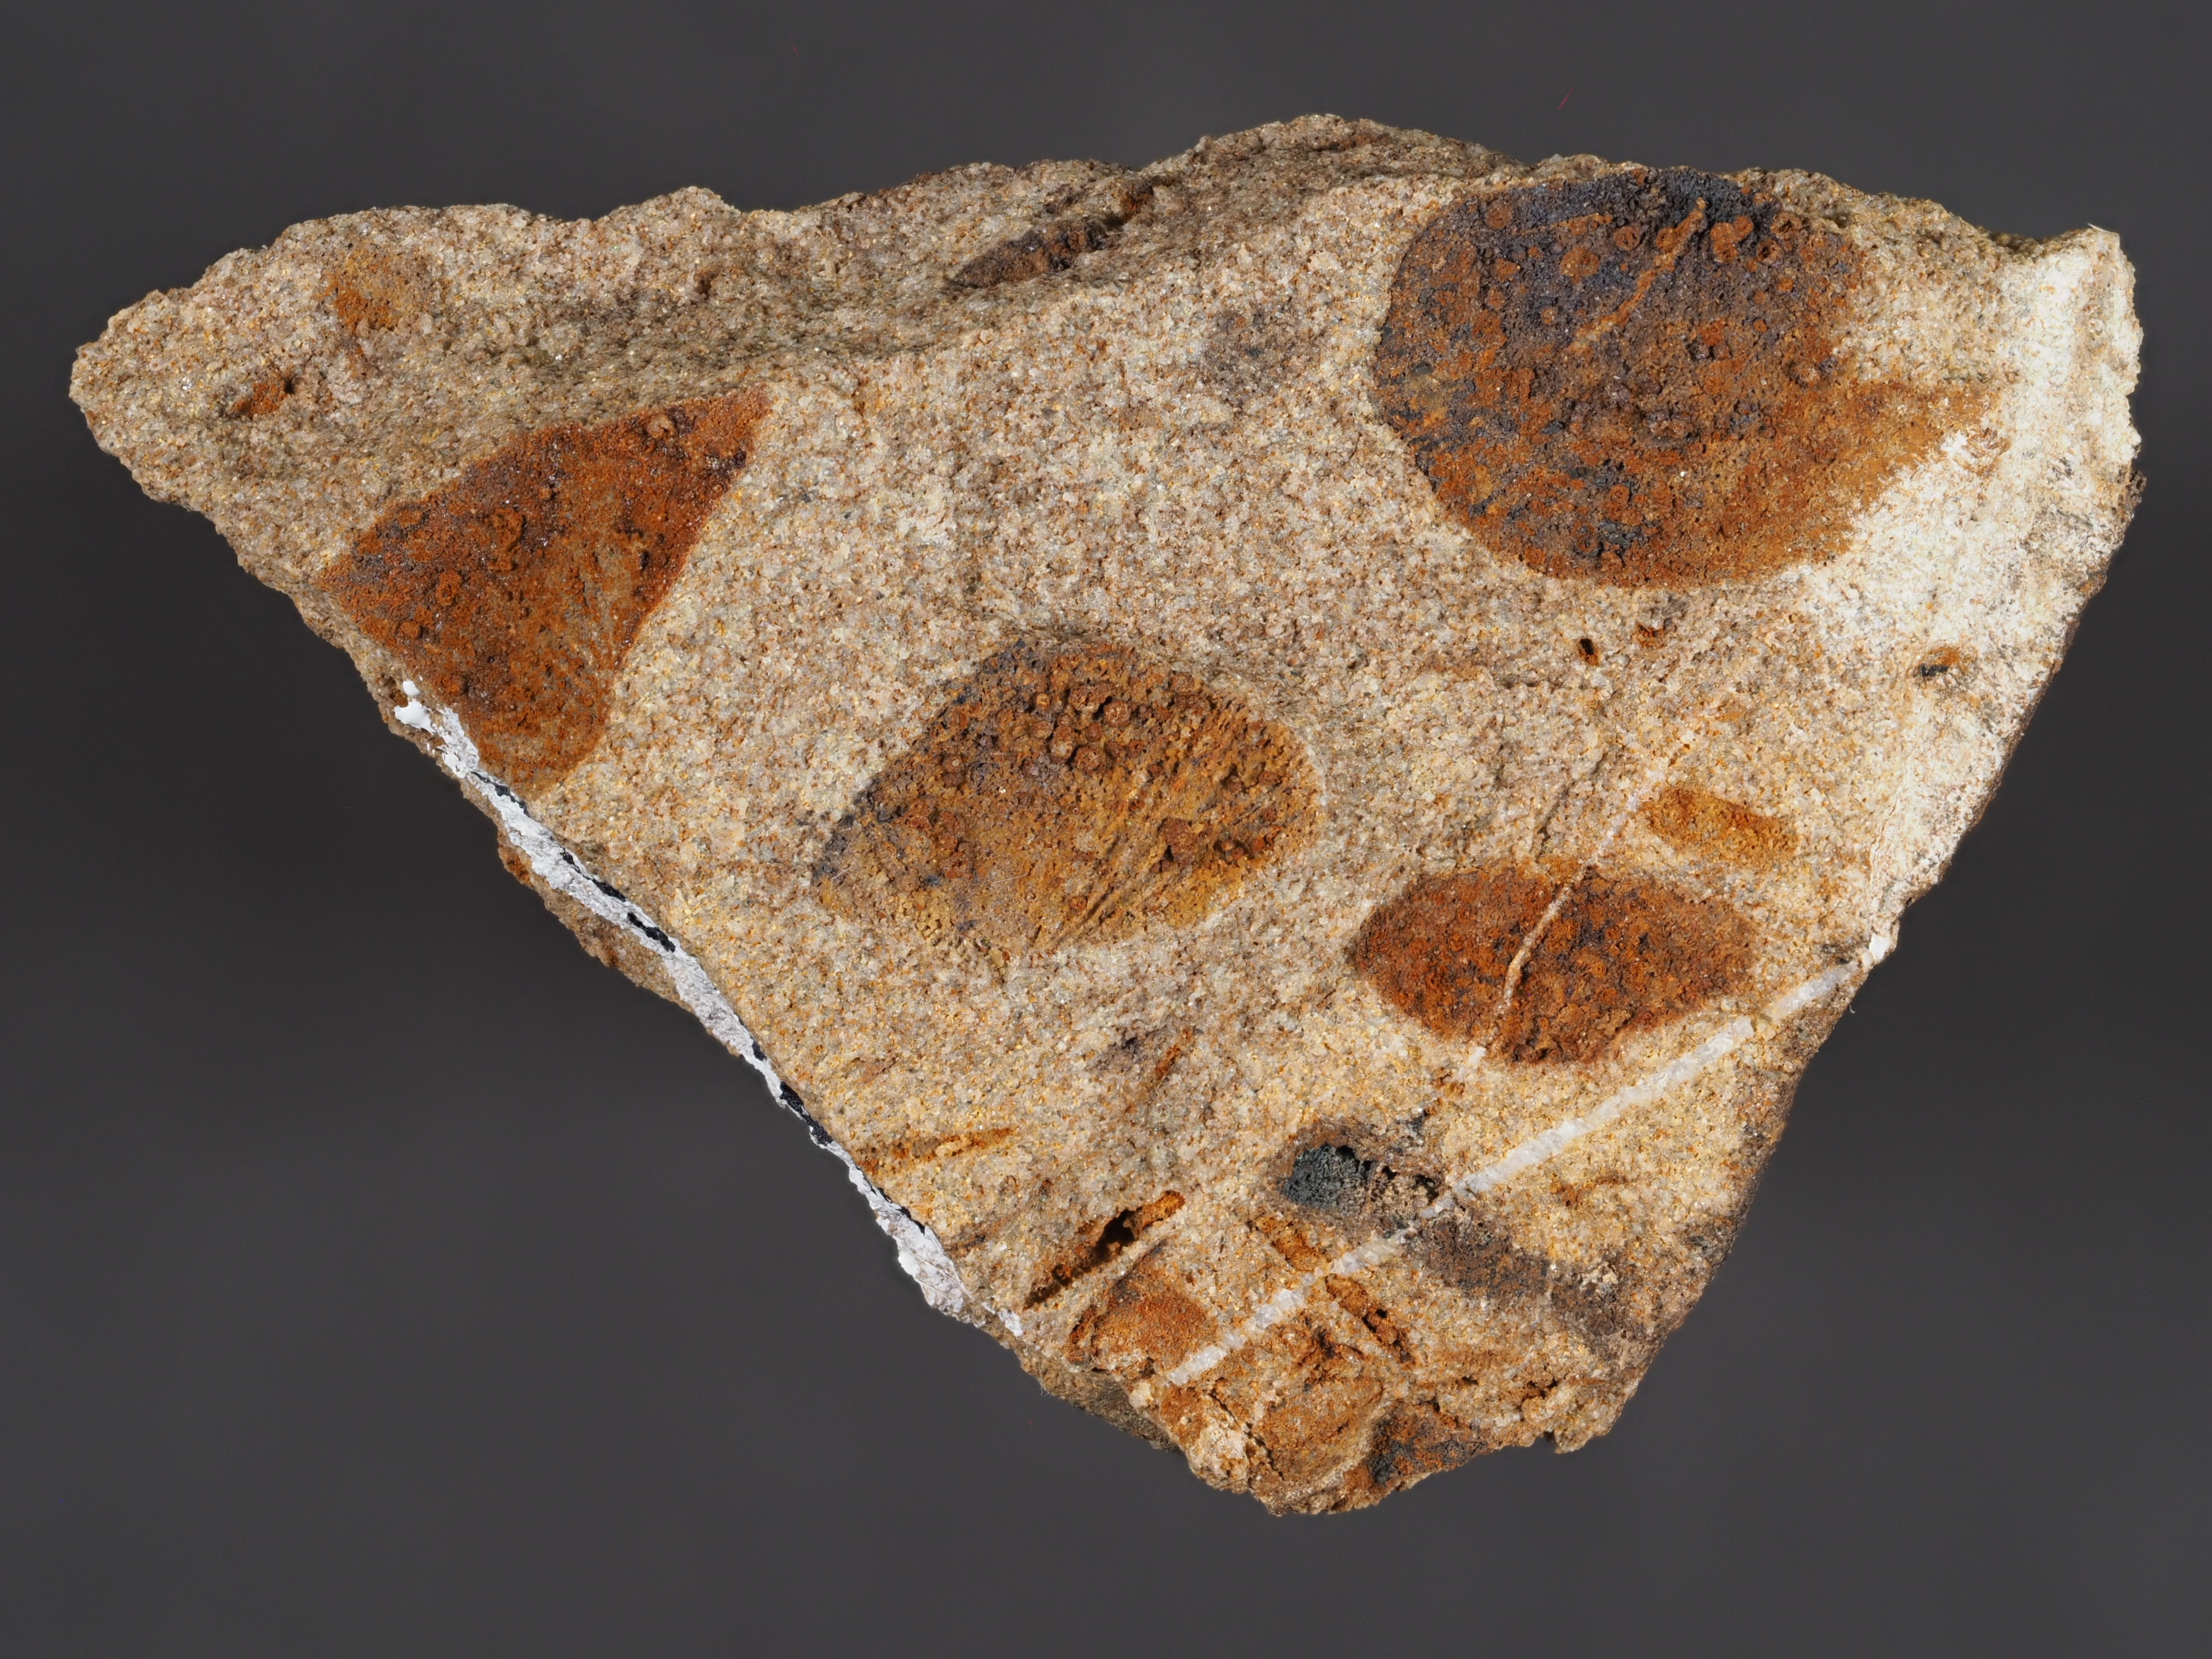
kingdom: Animalia
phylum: Mollusca
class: Bivalvia
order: Ostreida
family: Pterineidae
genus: Leptodesma
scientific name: Leptodesma
